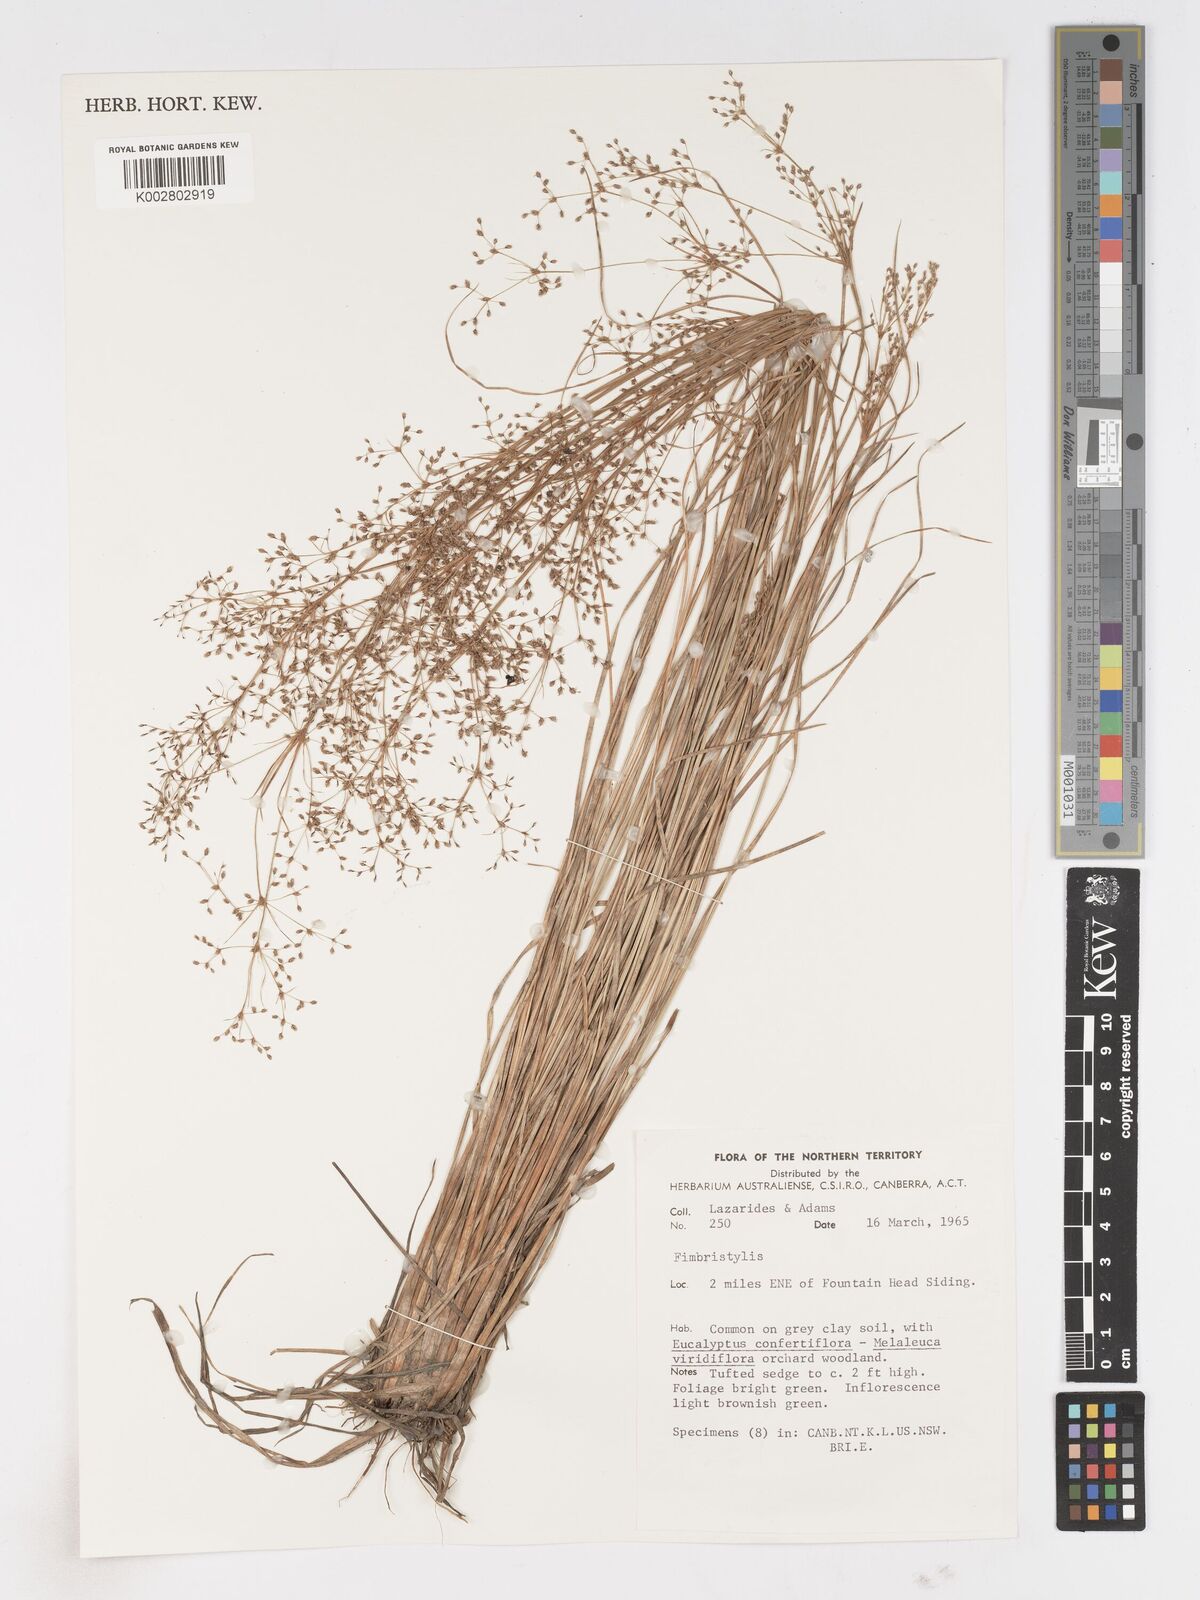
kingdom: Plantae
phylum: Tracheophyta
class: Liliopsida
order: Poales
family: Cyperaceae
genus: Fimbristylis
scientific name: Fimbristylis
